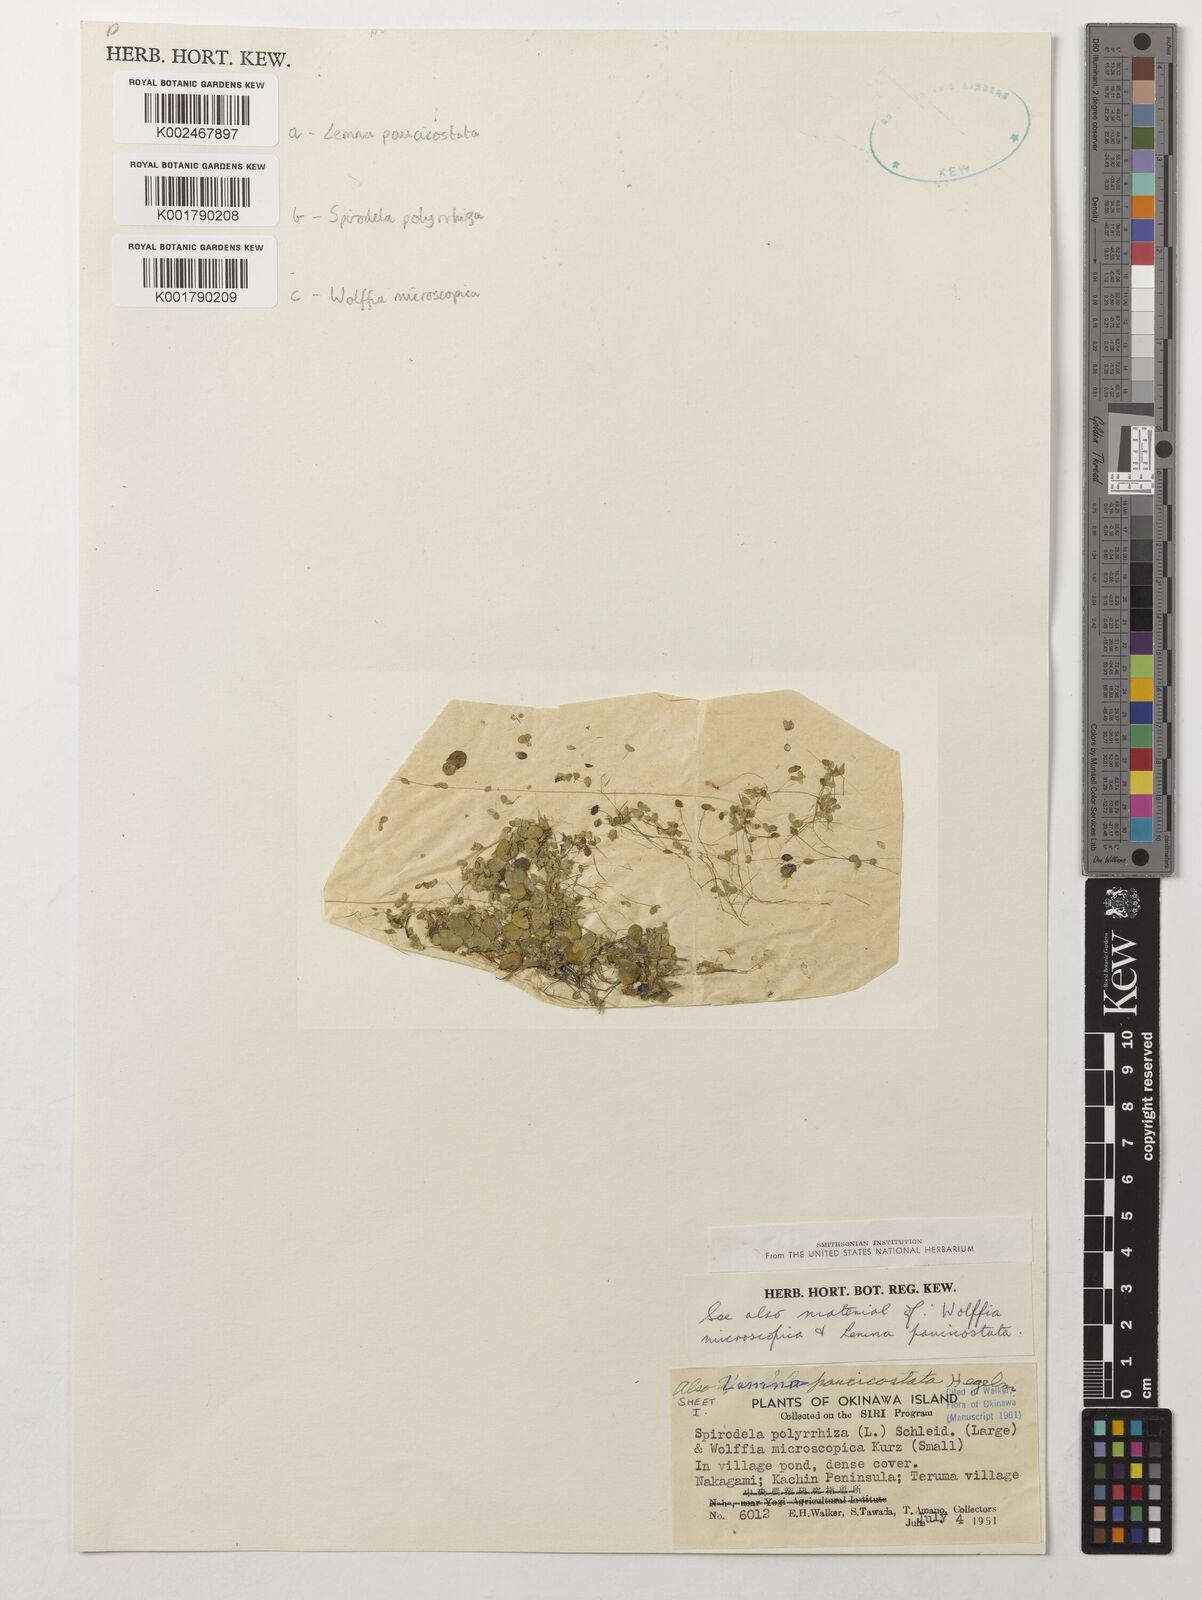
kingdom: Plantae
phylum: Tracheophyta
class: Liliopsida
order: Alismatales
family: Araceae
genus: Wolffia
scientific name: Wolffia microscopica
